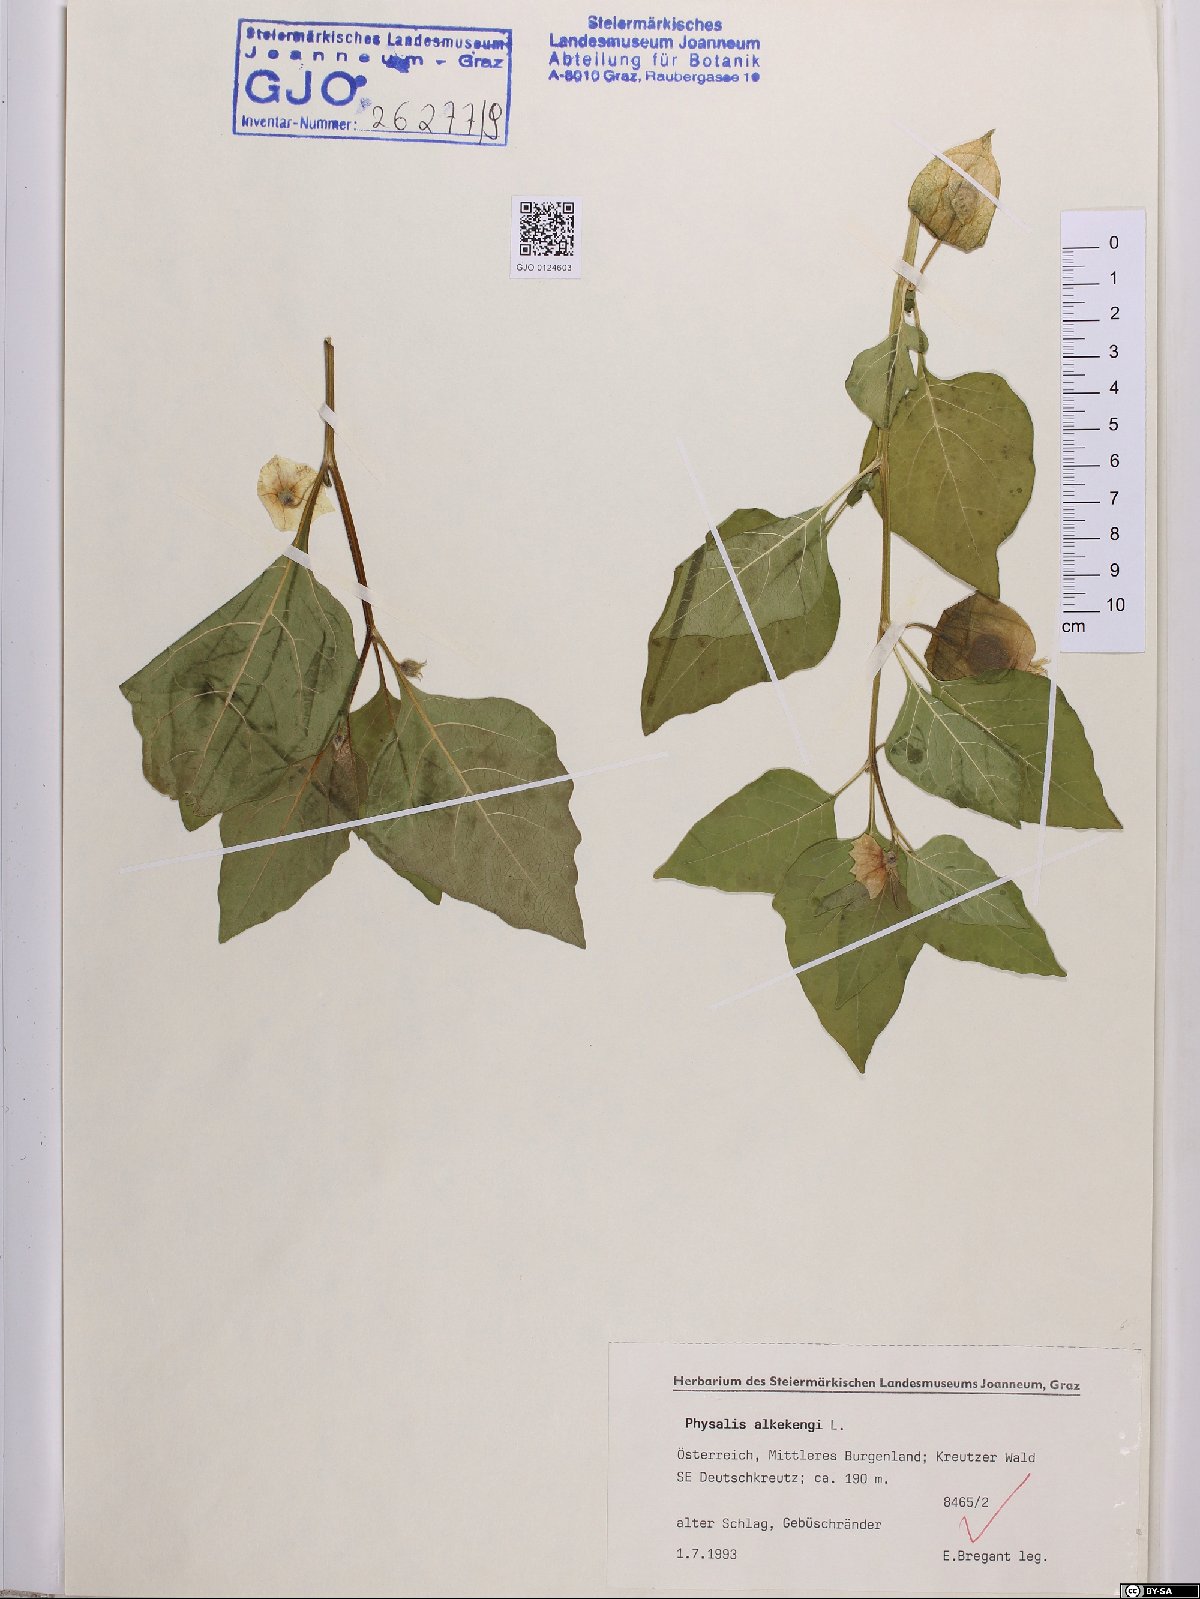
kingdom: Plantae
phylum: Tracheophyta
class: Magnoliopsida
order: Solanales
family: Solanaceae
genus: Alkekengi
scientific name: Alkekengi officinarum
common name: Japanese-lantern
